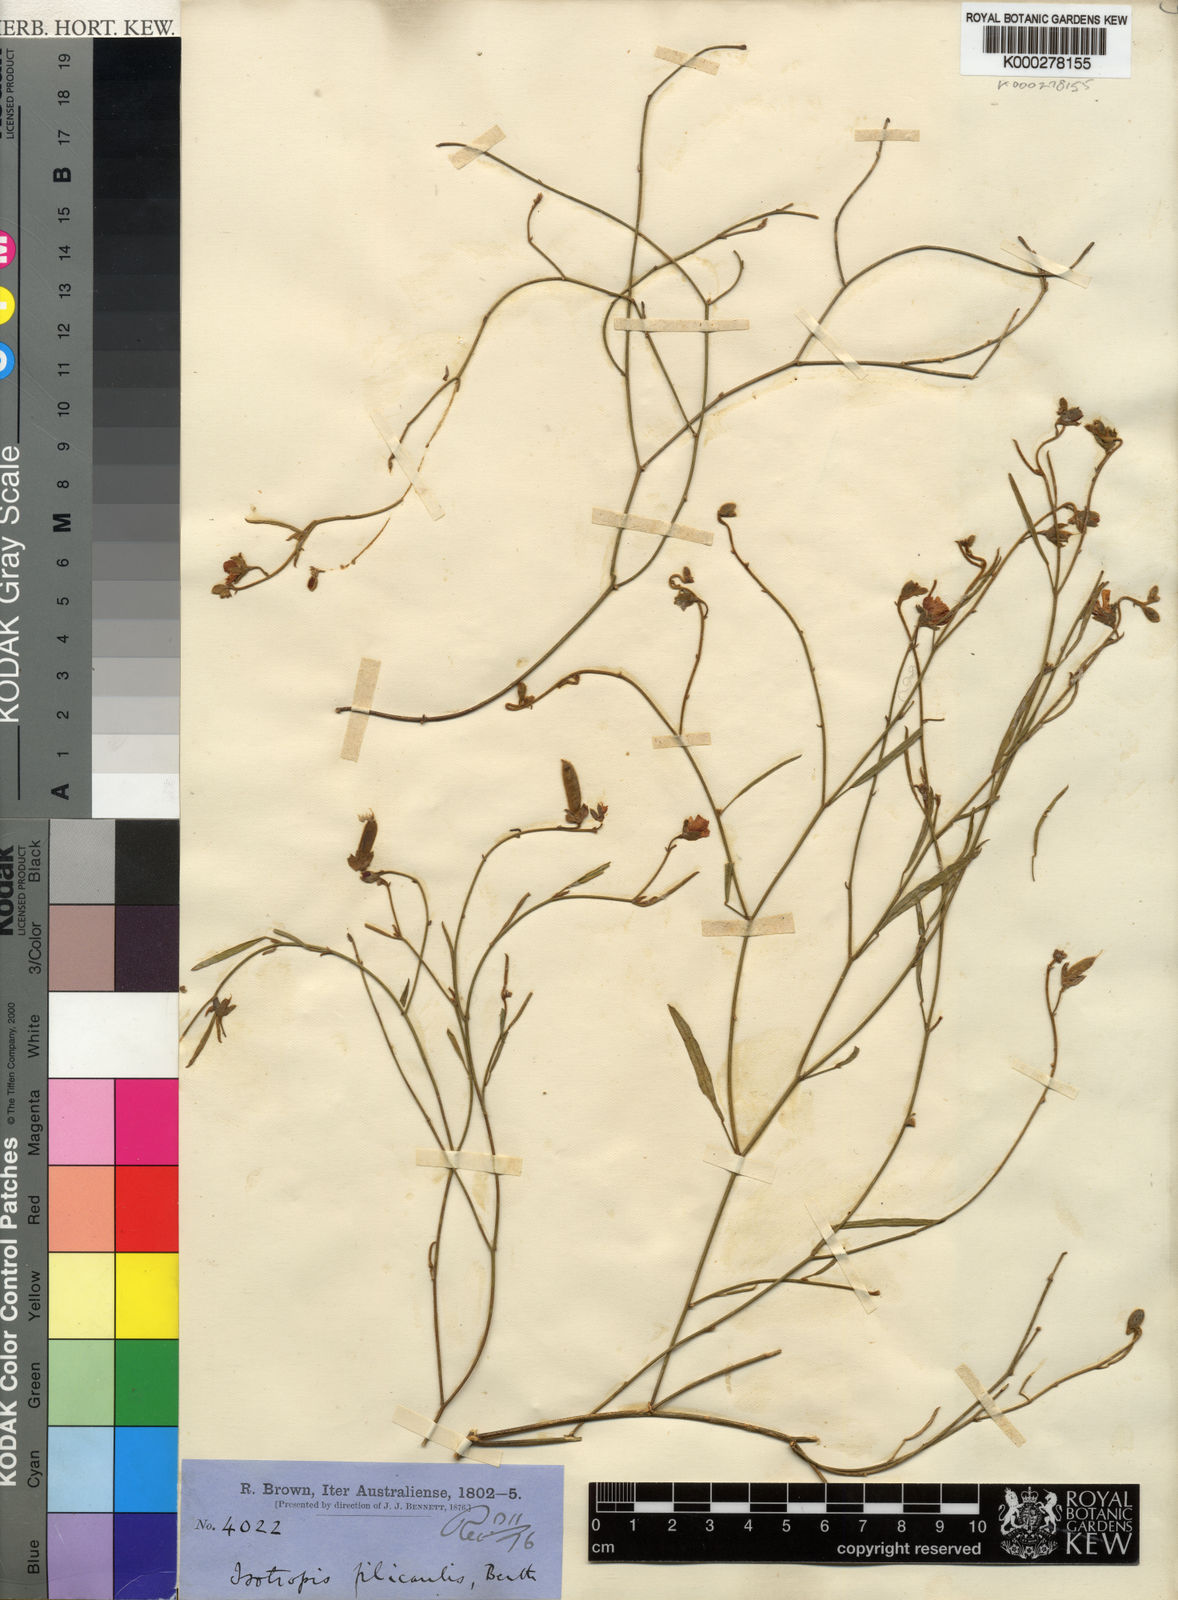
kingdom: Plantae
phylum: Tracheophyta
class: Magnoliopsida
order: Fabales
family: Fabaceae
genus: Isotropis
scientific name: Isotropis filicaulis
